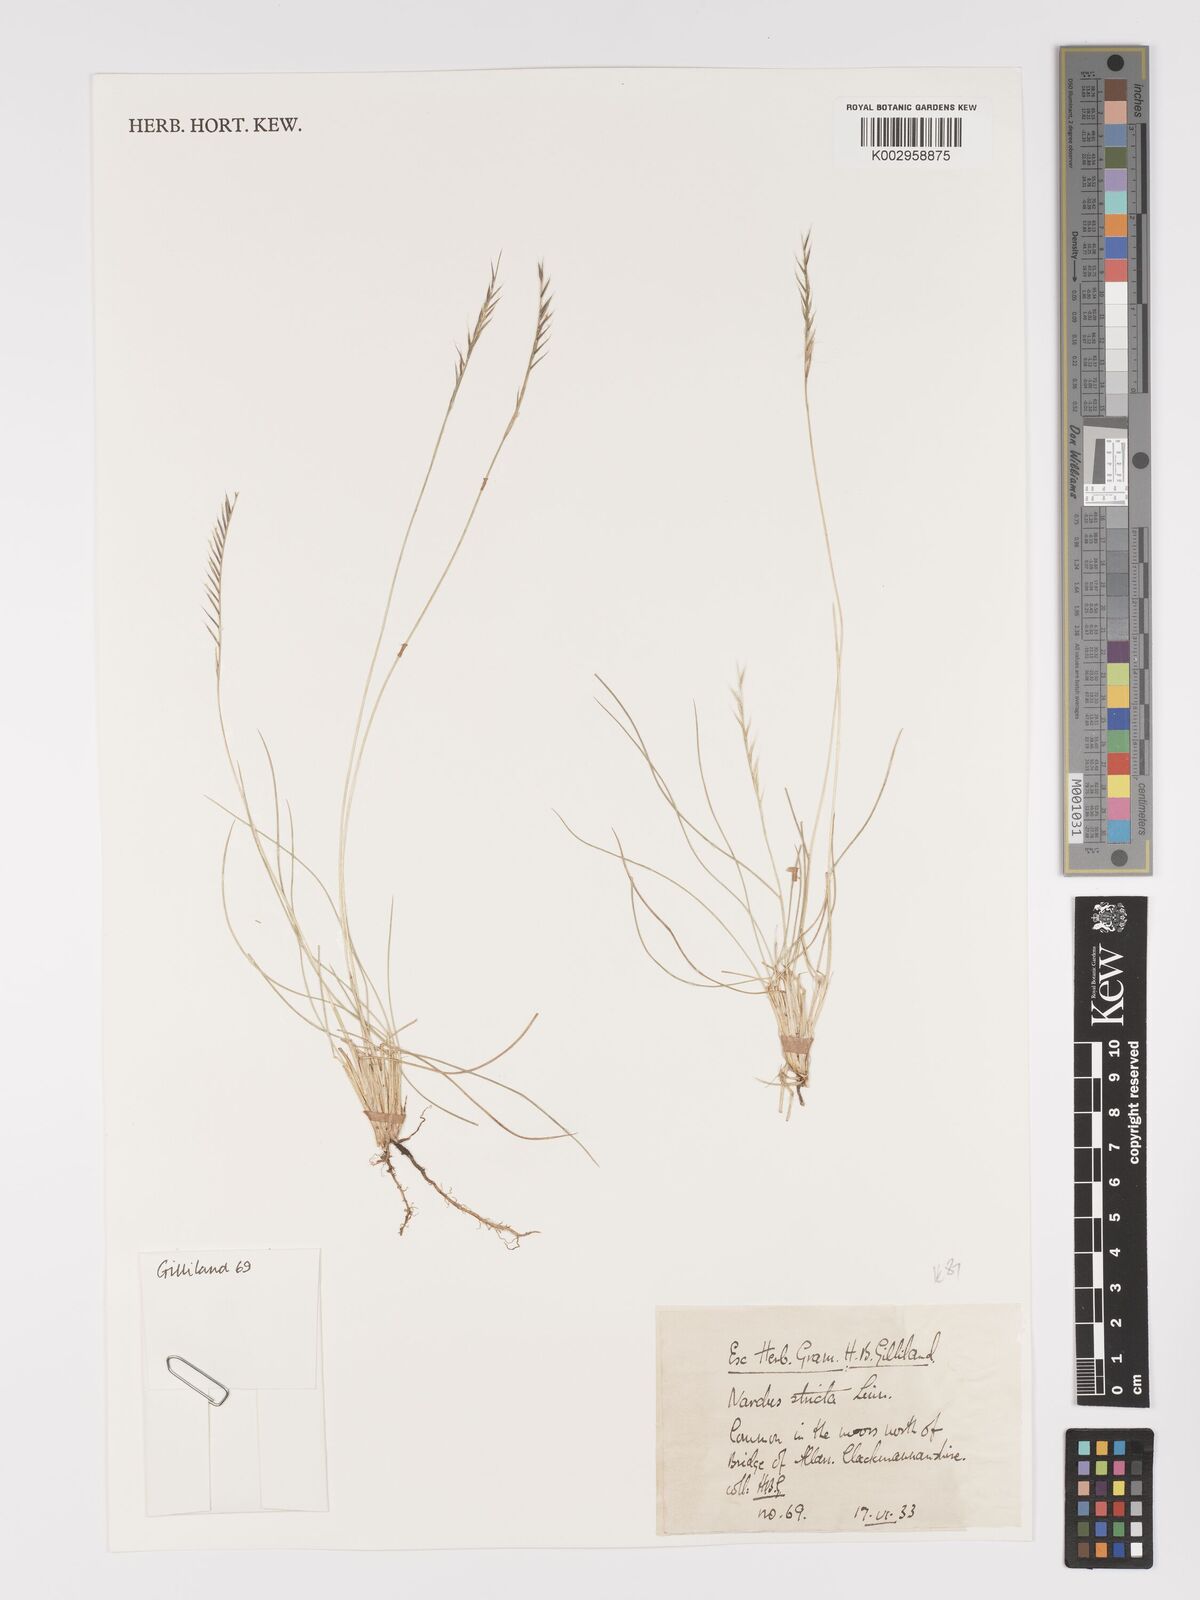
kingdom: Plantae
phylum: Tracheophyta
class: Liliopsida
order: Poales
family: Poaceae
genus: Nardus
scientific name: Nardus stricta
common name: Mat-grass
